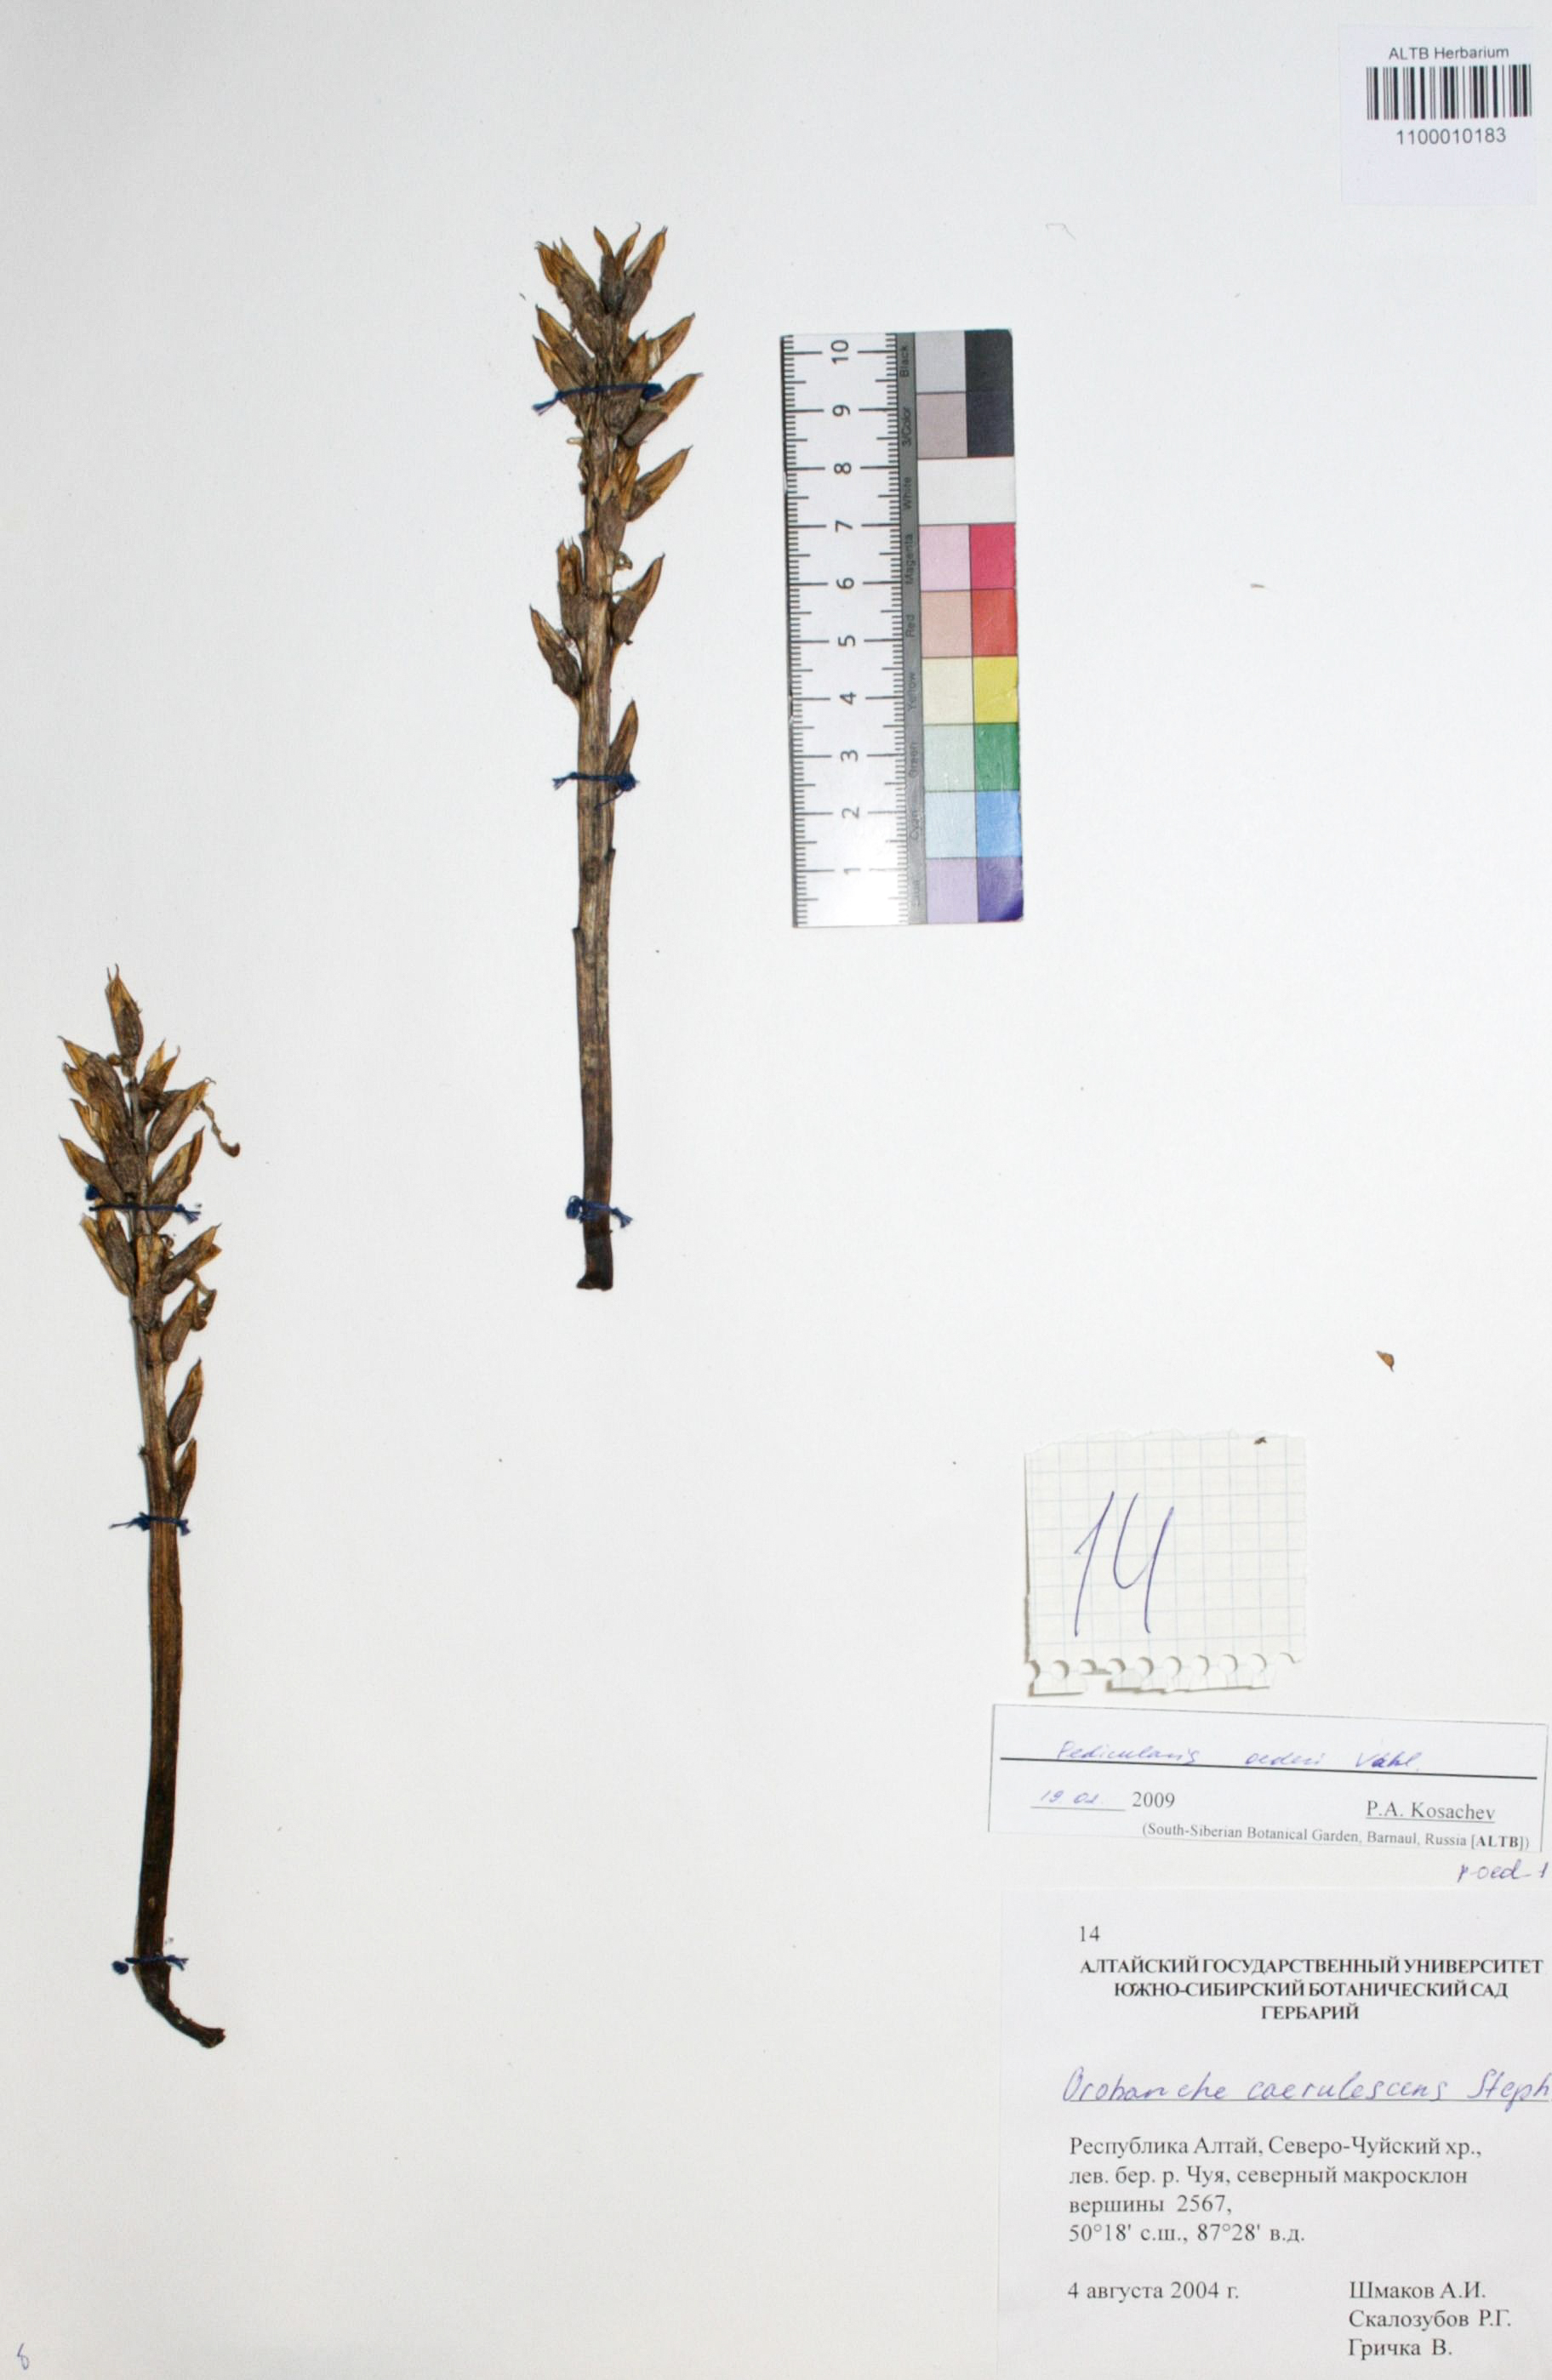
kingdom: Plantae
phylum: Tracheophyta
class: Magnoliopsida
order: Caryophyllales
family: Caryophyllaceae
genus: Silene
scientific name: Silene graminifolia
